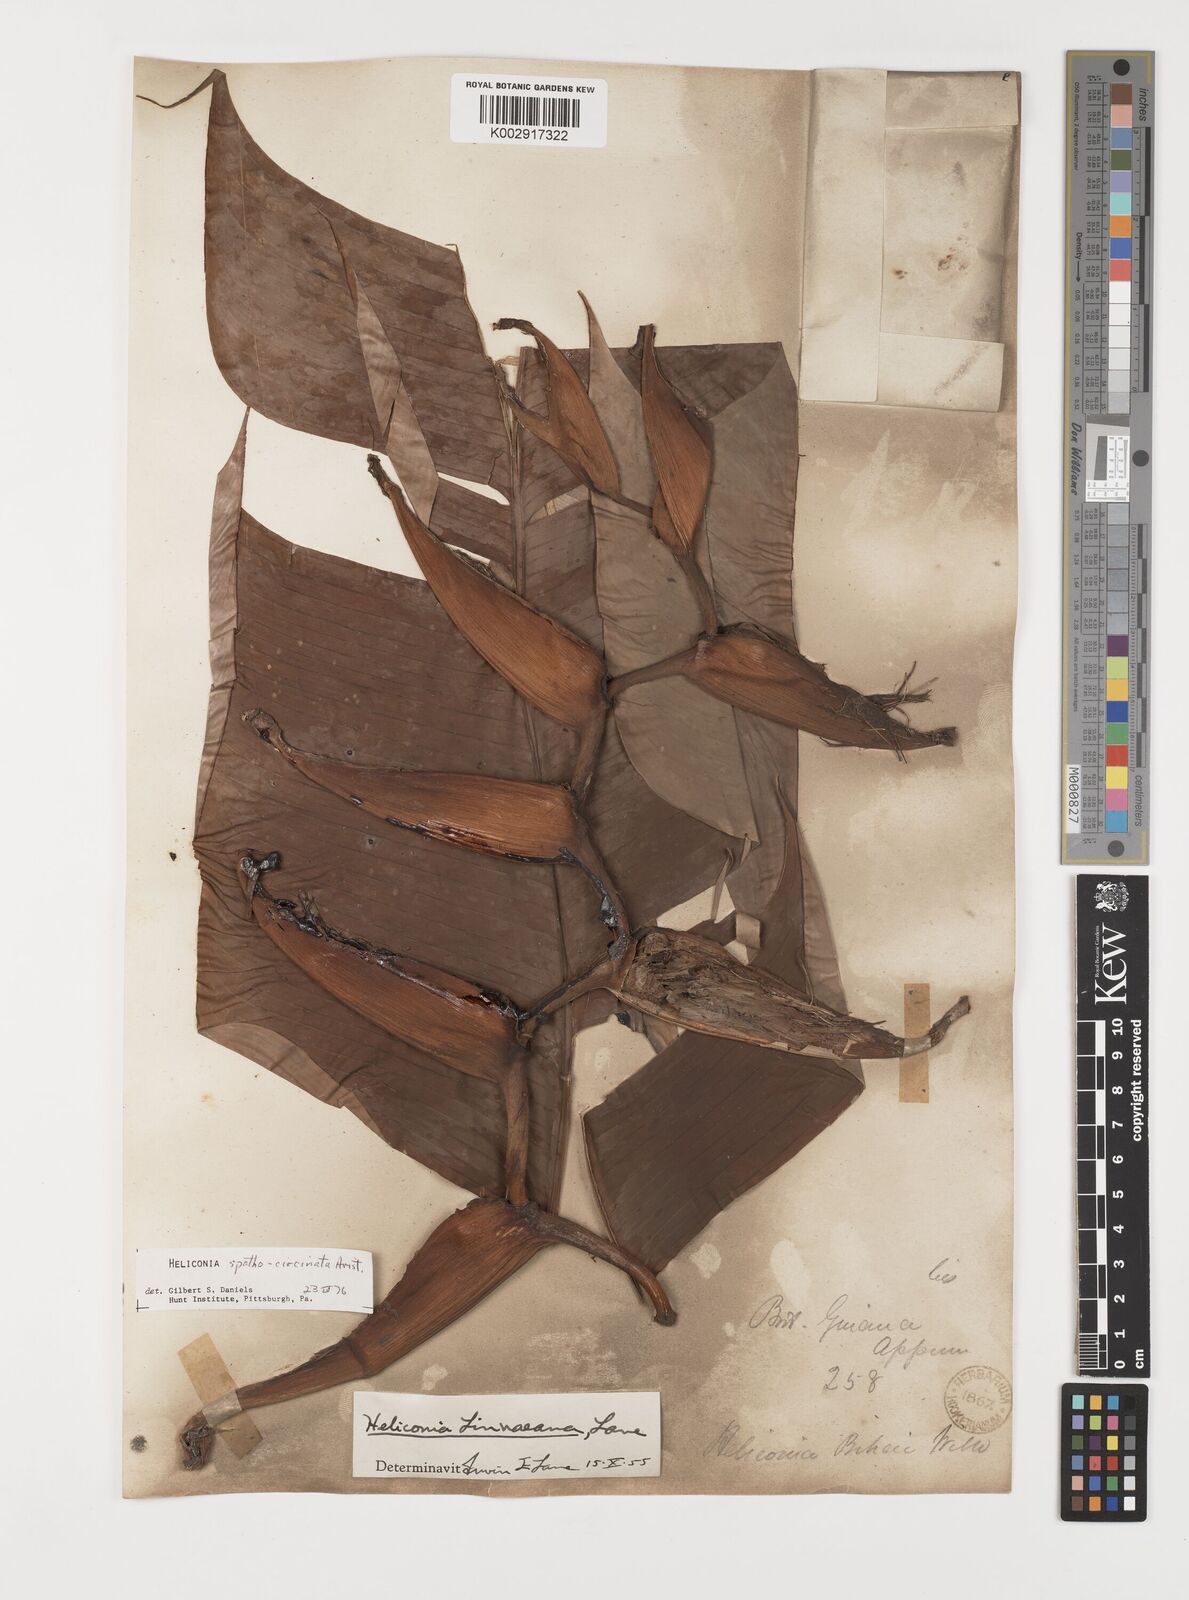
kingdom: Plantae
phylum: Tracheophyta
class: Liliopsida
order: Zingiberales
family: Heliconiaceae
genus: Heliconia
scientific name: Heliconia spathocircinata
